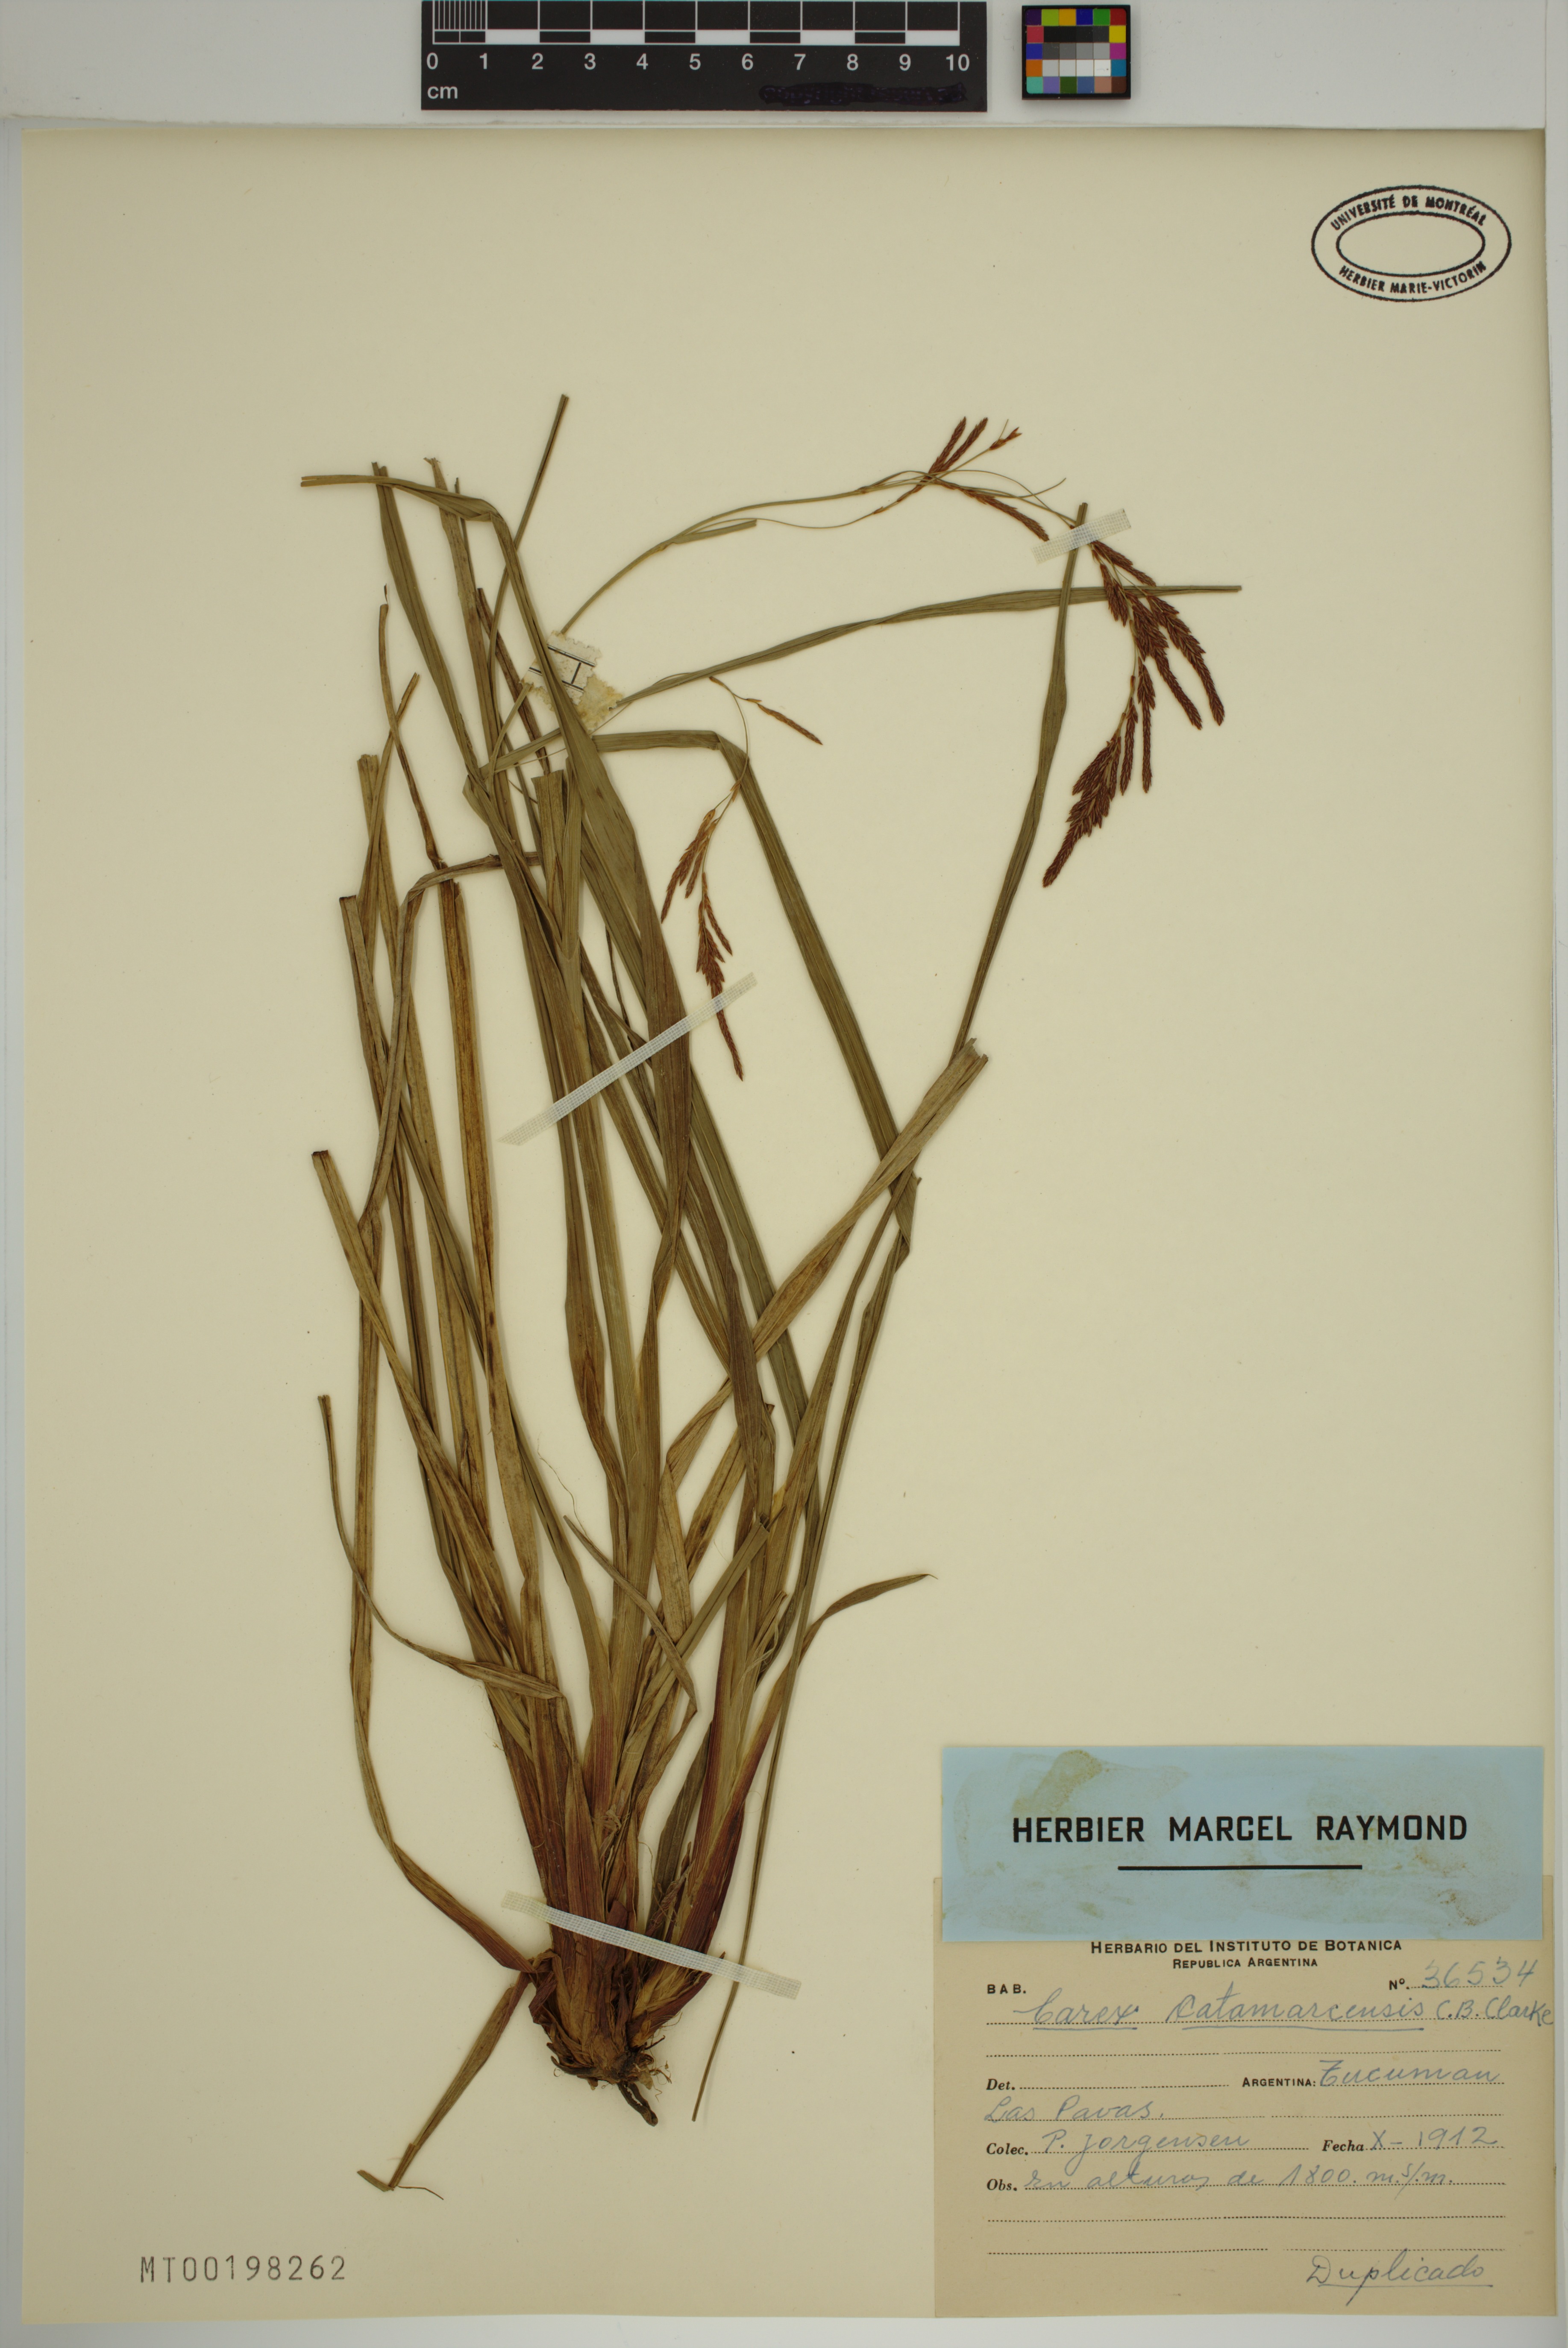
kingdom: Plantae
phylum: Tracheophyta
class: Liliopsida
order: Poales
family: Cyperaceae
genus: Carex
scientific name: Carex catamarcensis
